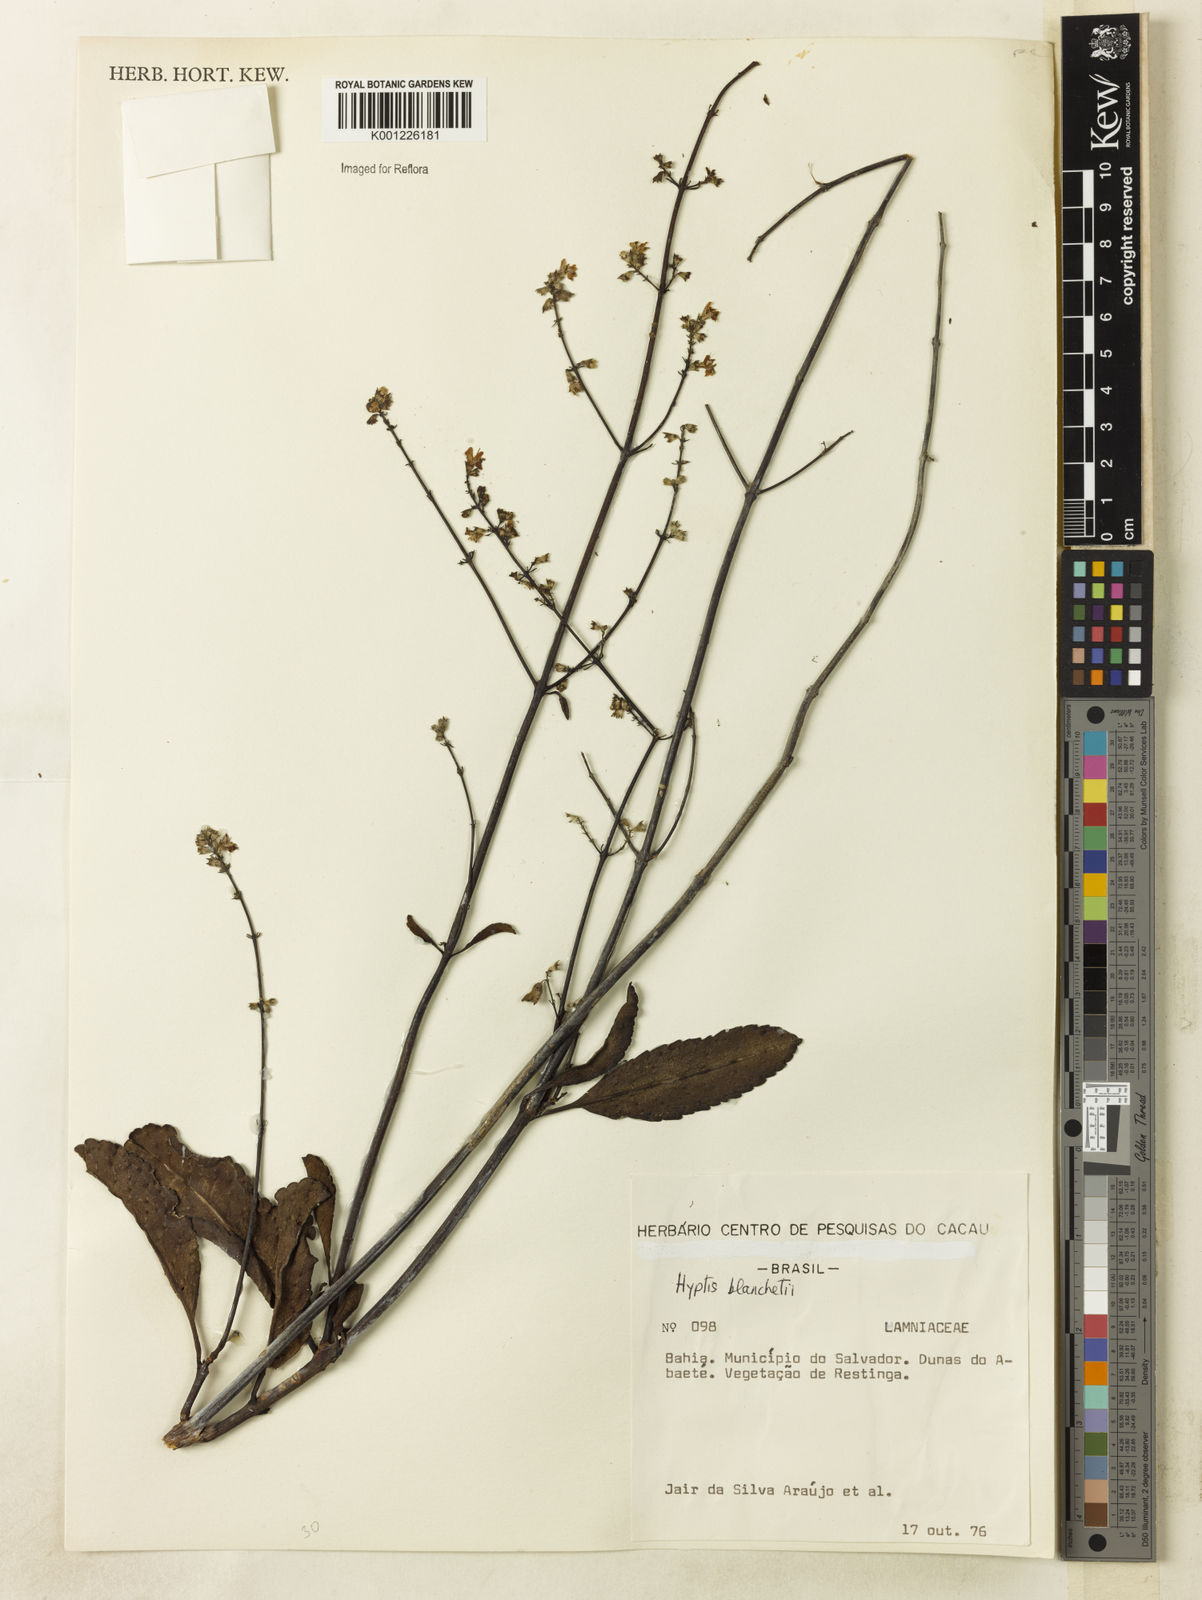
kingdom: Plantae
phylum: Tracheophyta
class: Magnoliopsida
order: Lamiales
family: Lamiaceae
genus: Eriope
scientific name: Eriope blanchetii
